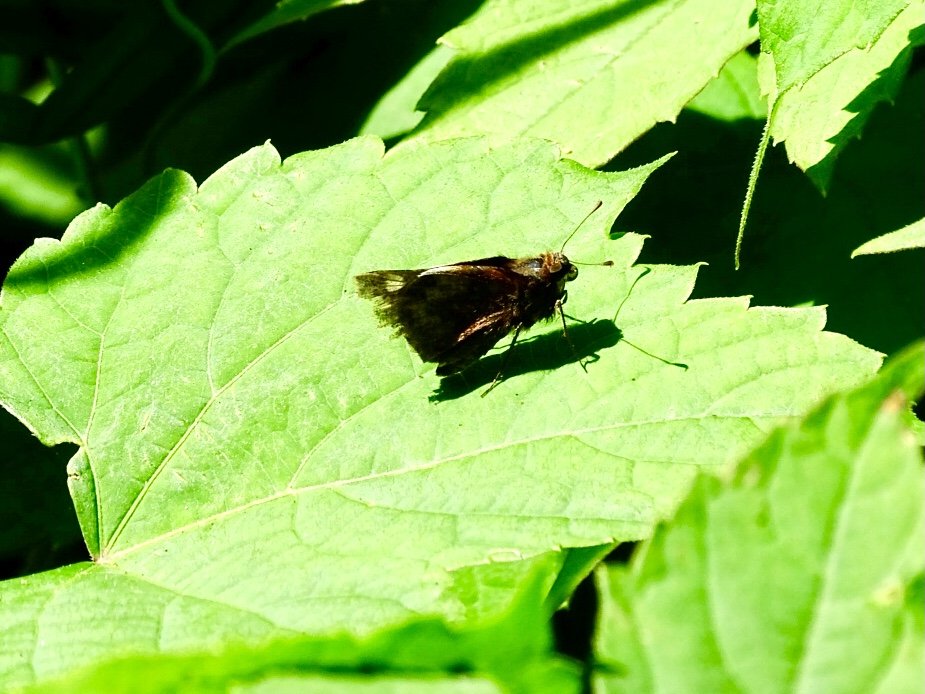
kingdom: Animalia
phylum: Arthropoda
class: Insecta
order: Lepidoptera
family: Hesperiidae
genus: Lon
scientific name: Lon zabulon
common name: Zabulon Skipper
